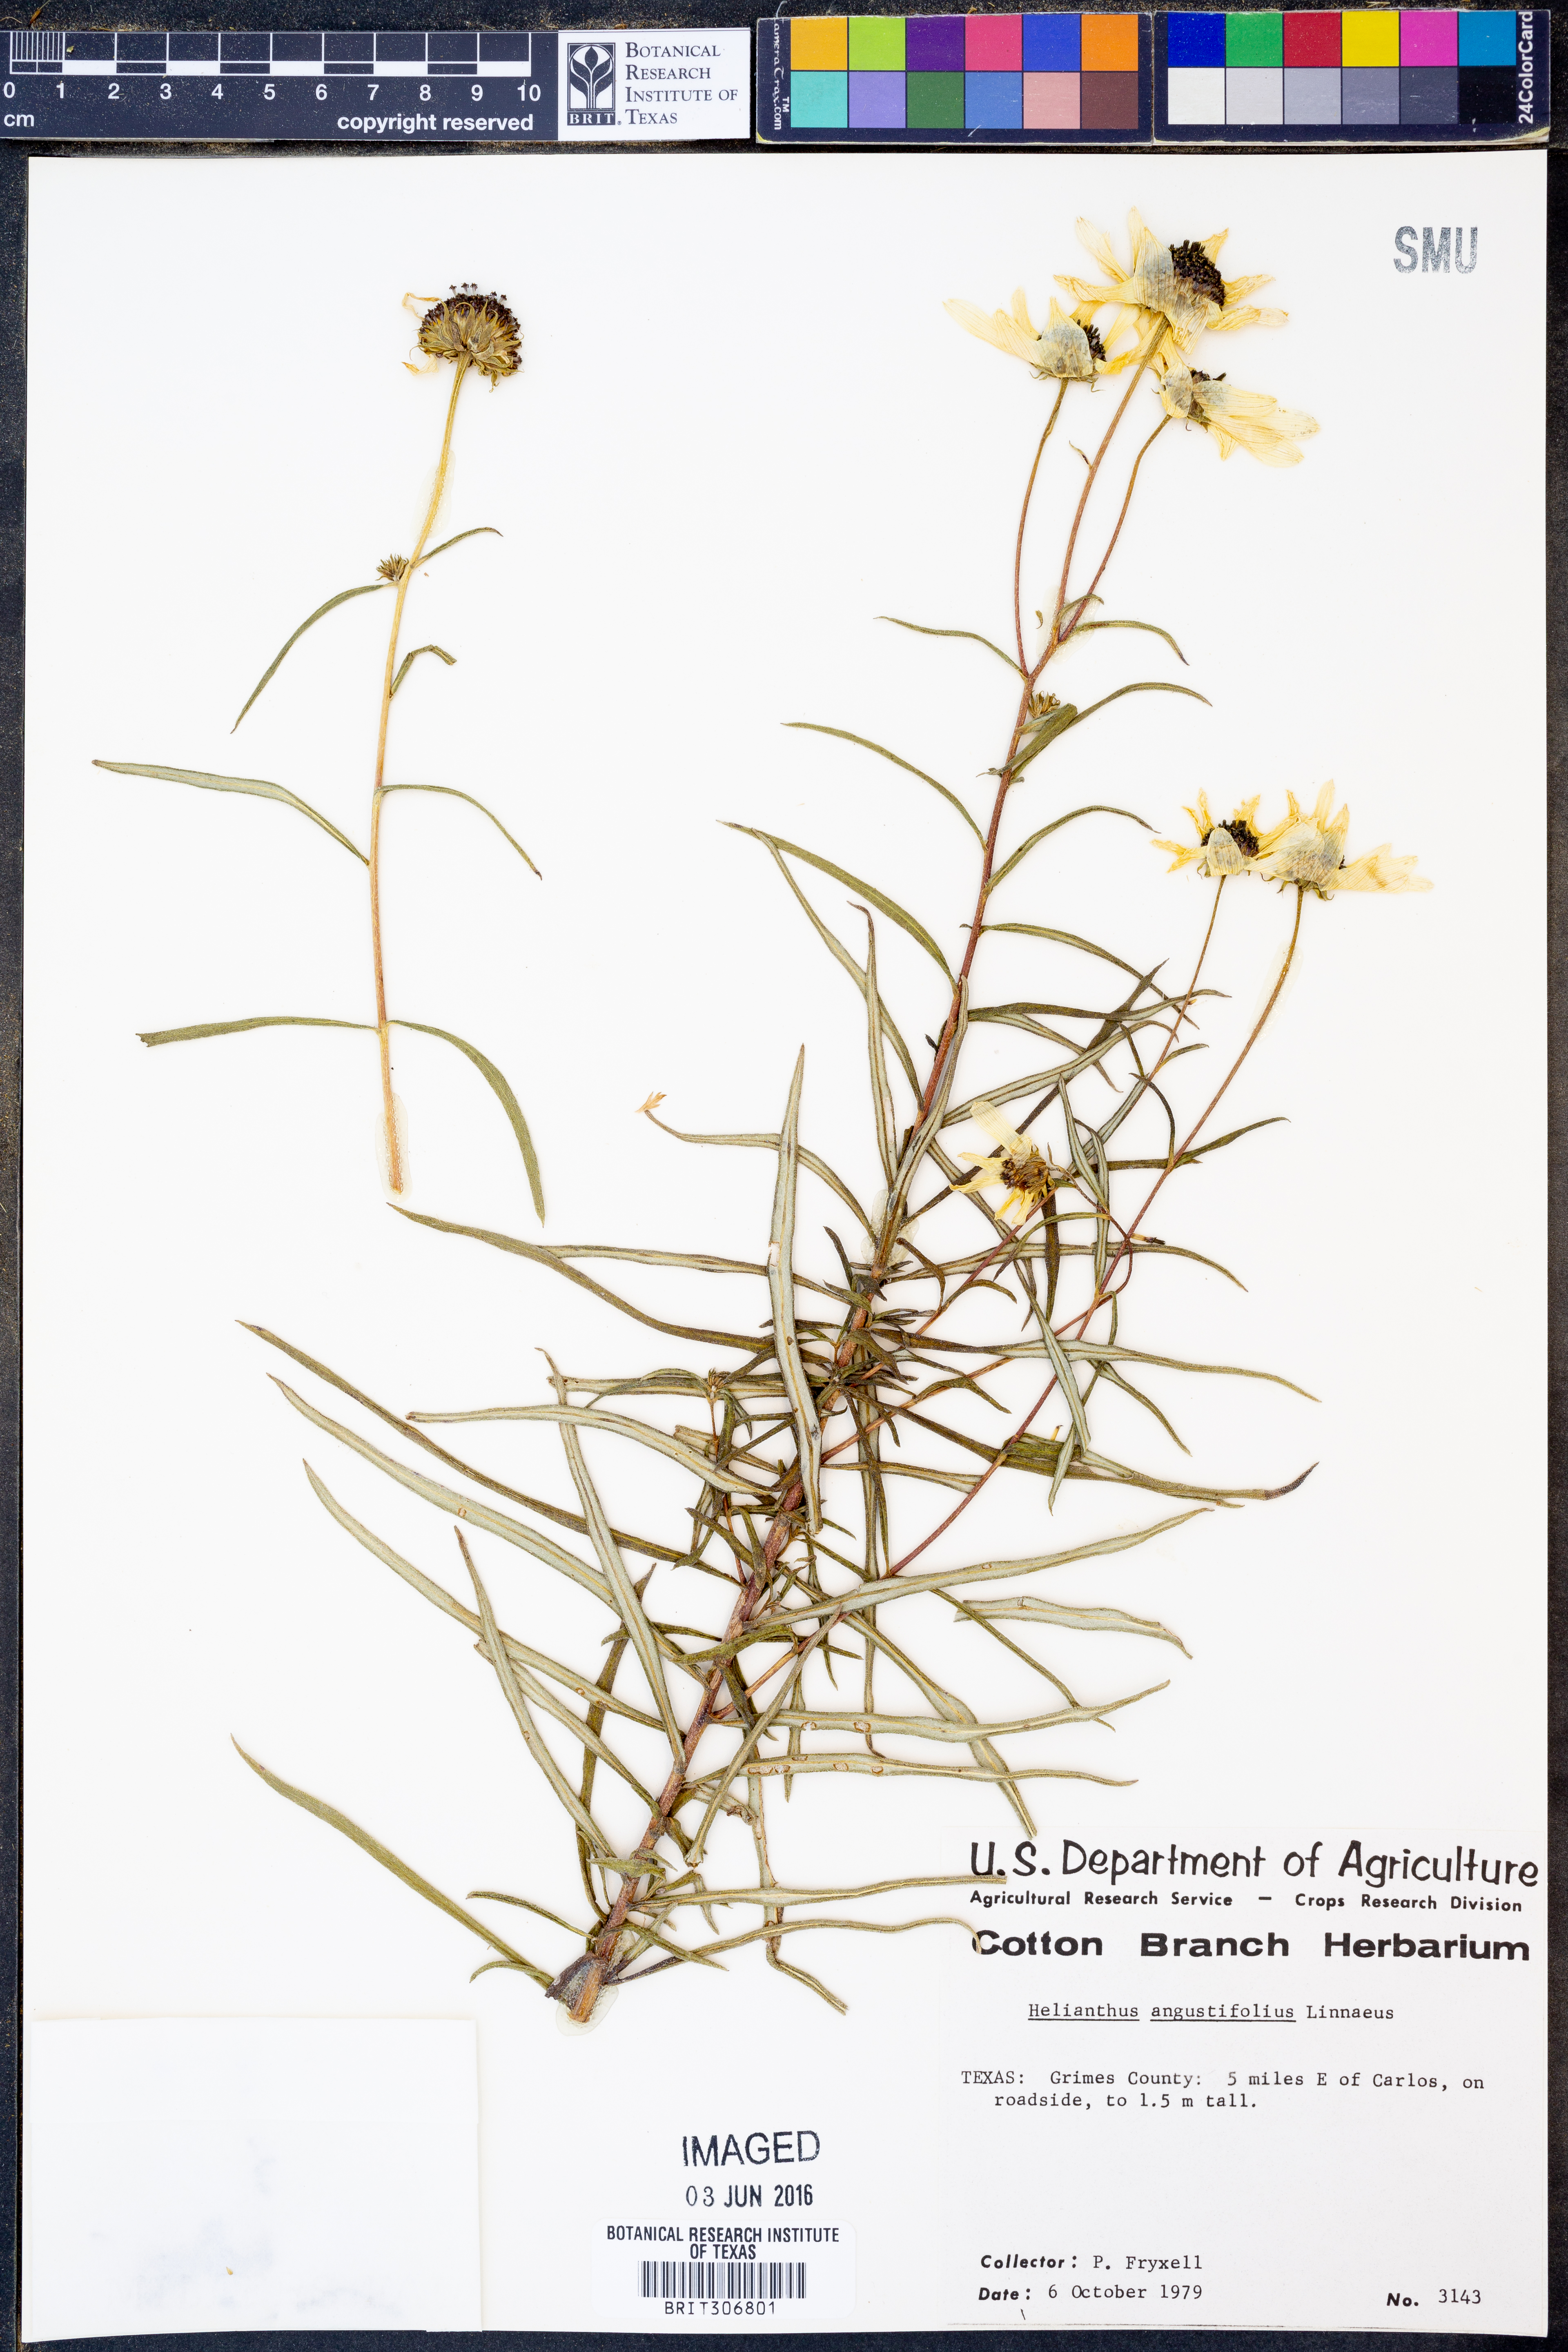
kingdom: Plantae
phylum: Tracheophyta
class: Magnoliopsida
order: Asterales
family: Asteraceae
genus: Helianthus
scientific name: Helianthus angustifolius
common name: Swamp sunflower
